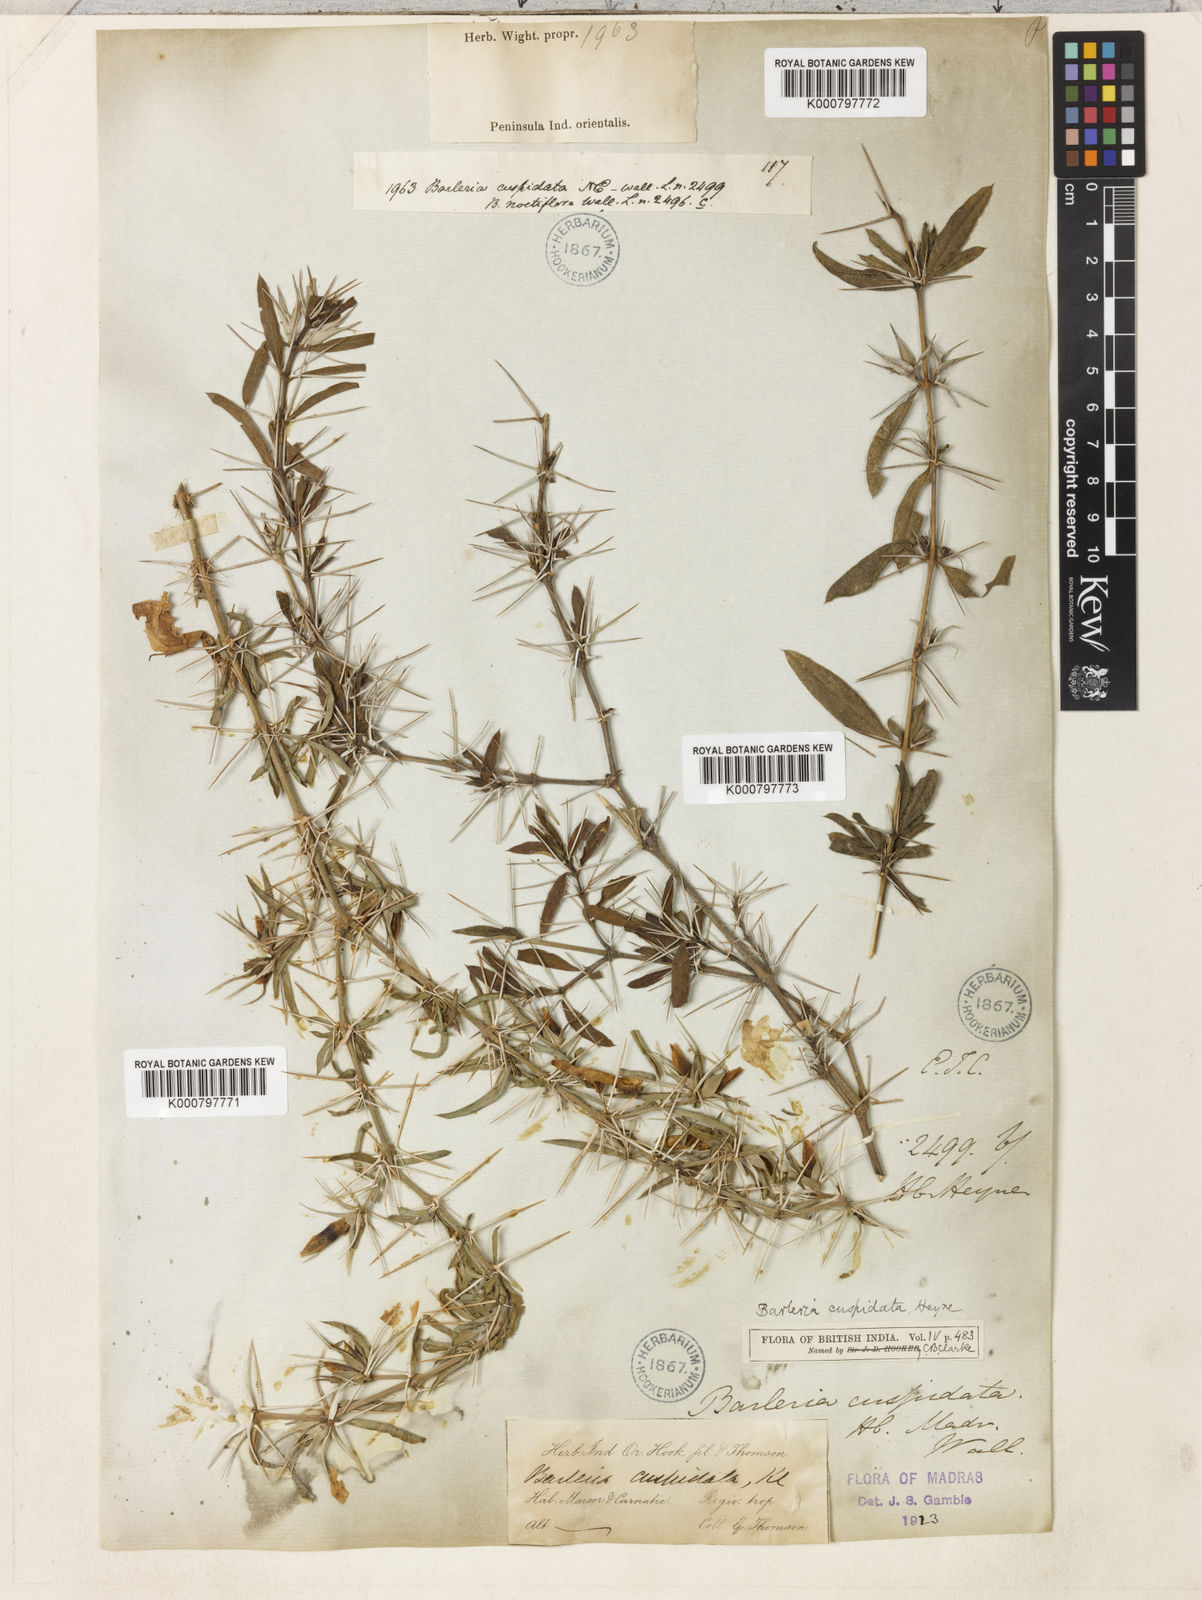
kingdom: Plantae
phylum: Tracheophyta
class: Magnoliopsida
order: Lamiales
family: Acanthaceae
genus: Barleria
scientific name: Barleria cuspidata
